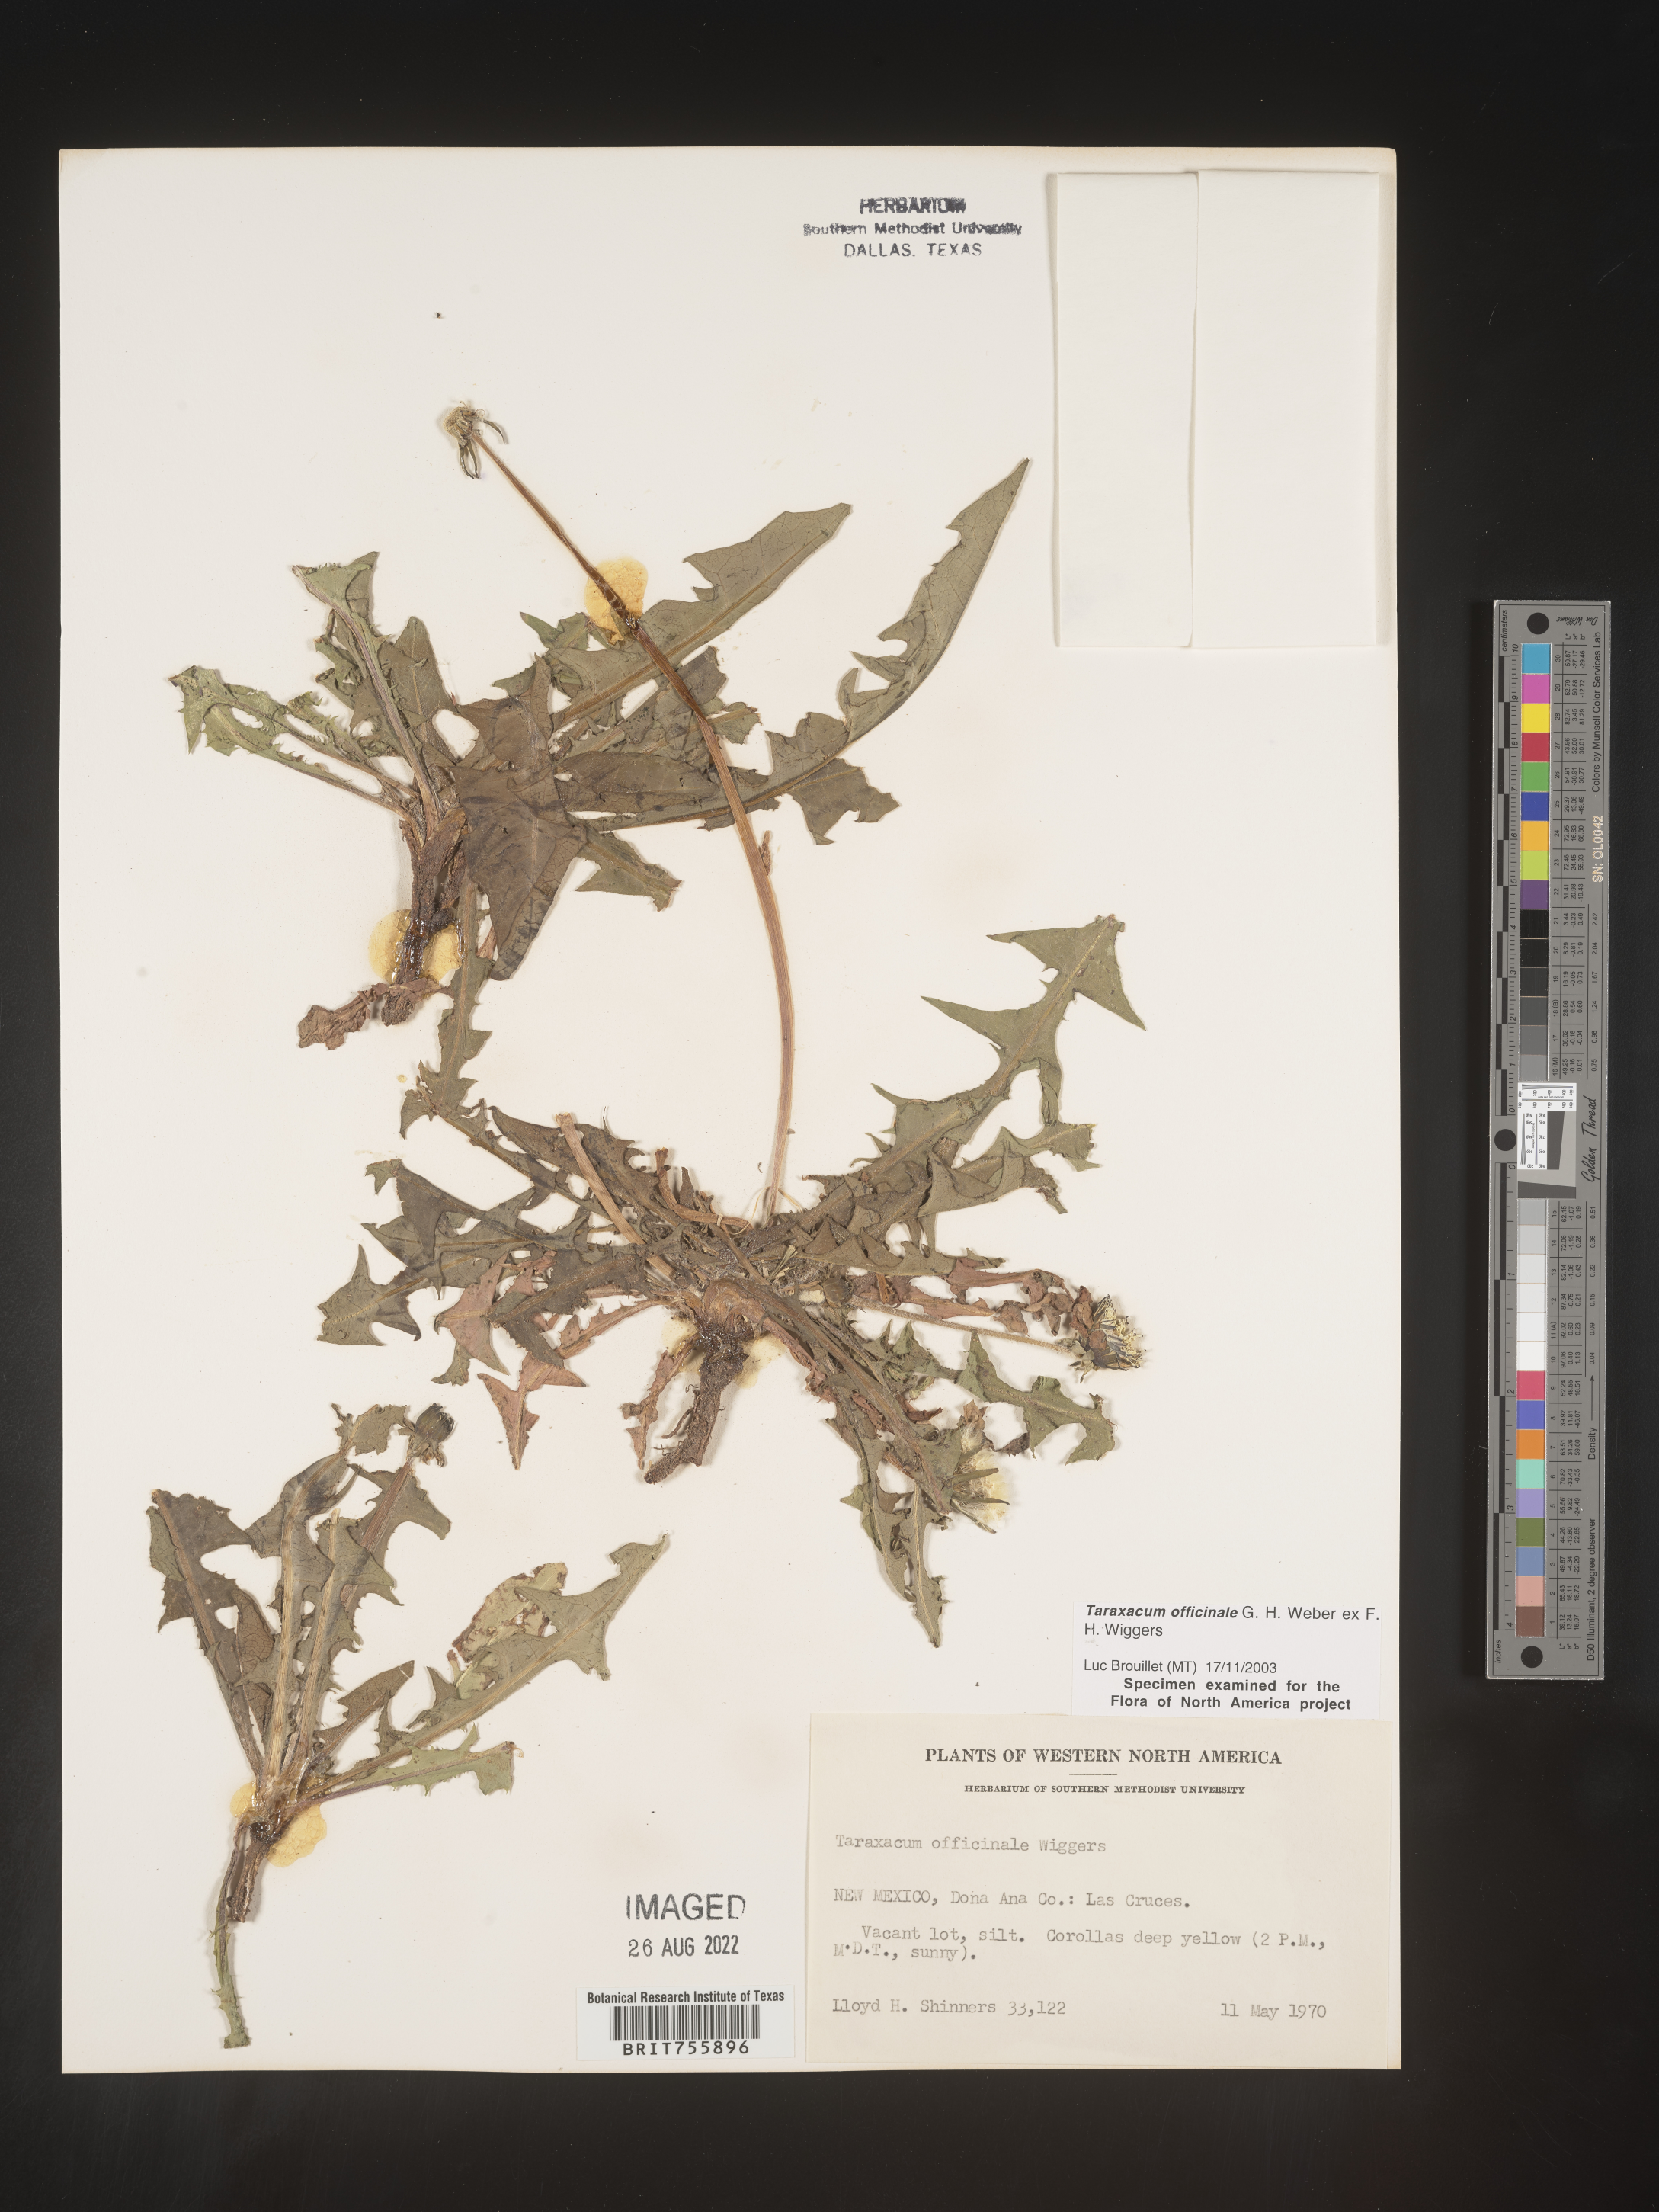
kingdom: Plantae
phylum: Tracheophyta
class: Magnoliopsida
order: Asterales
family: Asteraceae
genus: Taraxacum
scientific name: Taraxacum officinale
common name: Common dandelion
